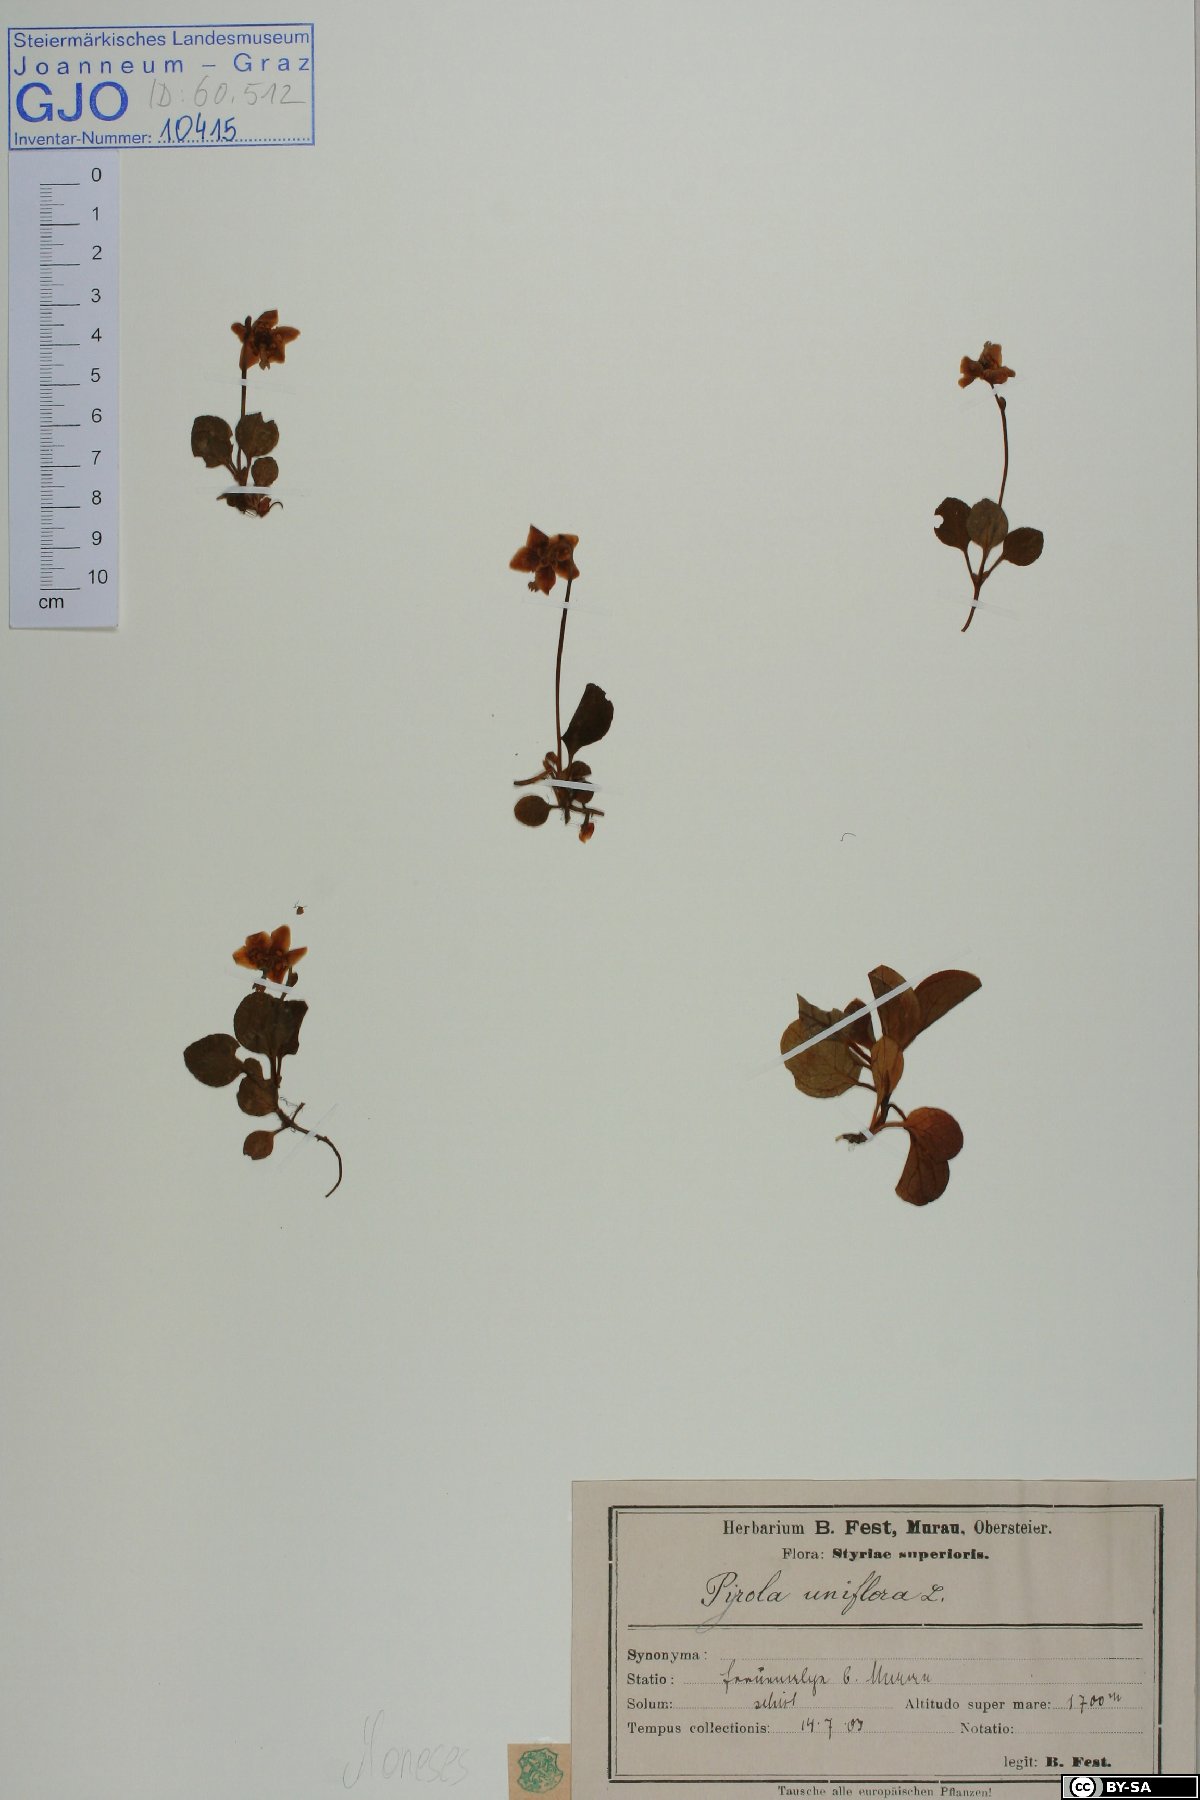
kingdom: Plantae
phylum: Tracheophyta
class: Magnoliopsida
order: Ericales
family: Ericaceae
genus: Moneses
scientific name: Moneses uniflora
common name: One-flowered wintergreen
